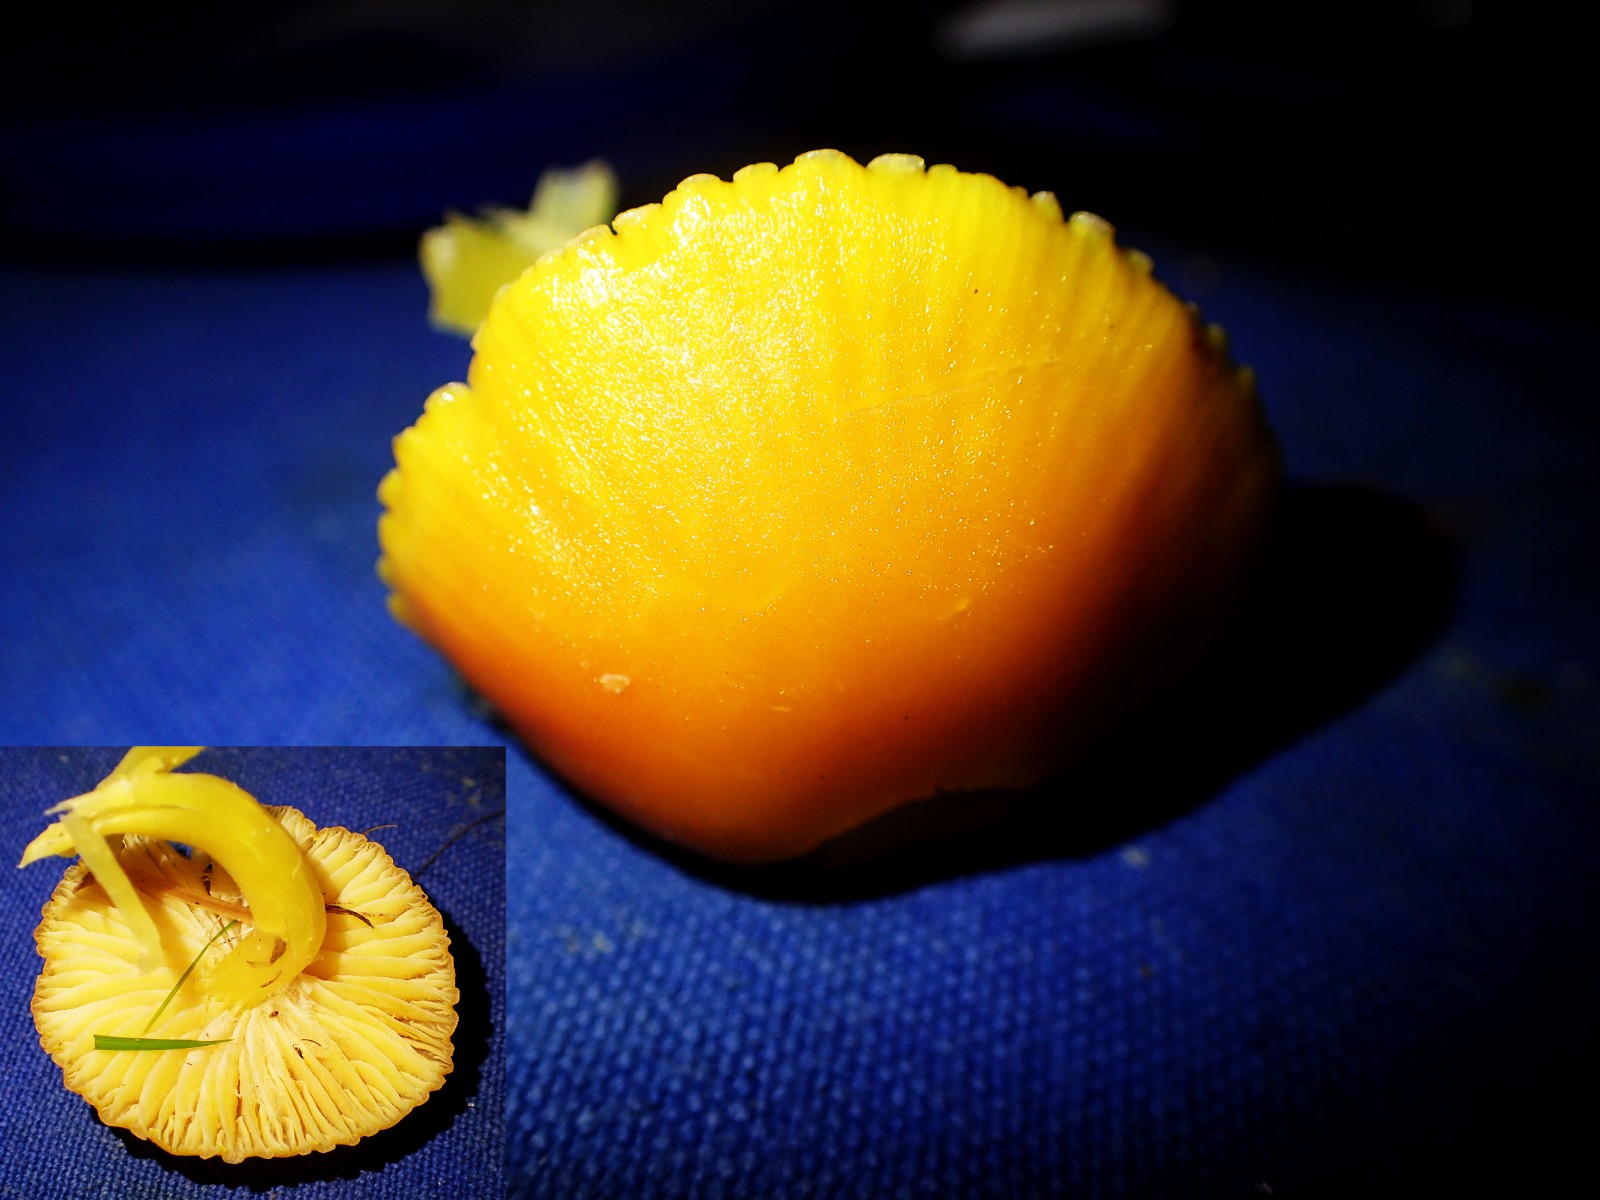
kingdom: Fungi
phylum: Basidiomycota
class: Agaricomycetes
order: Agaricales
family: Hygrophoraceae
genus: Hygrocybe
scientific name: Hygrocybe ceracea
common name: voksgul vokshat
